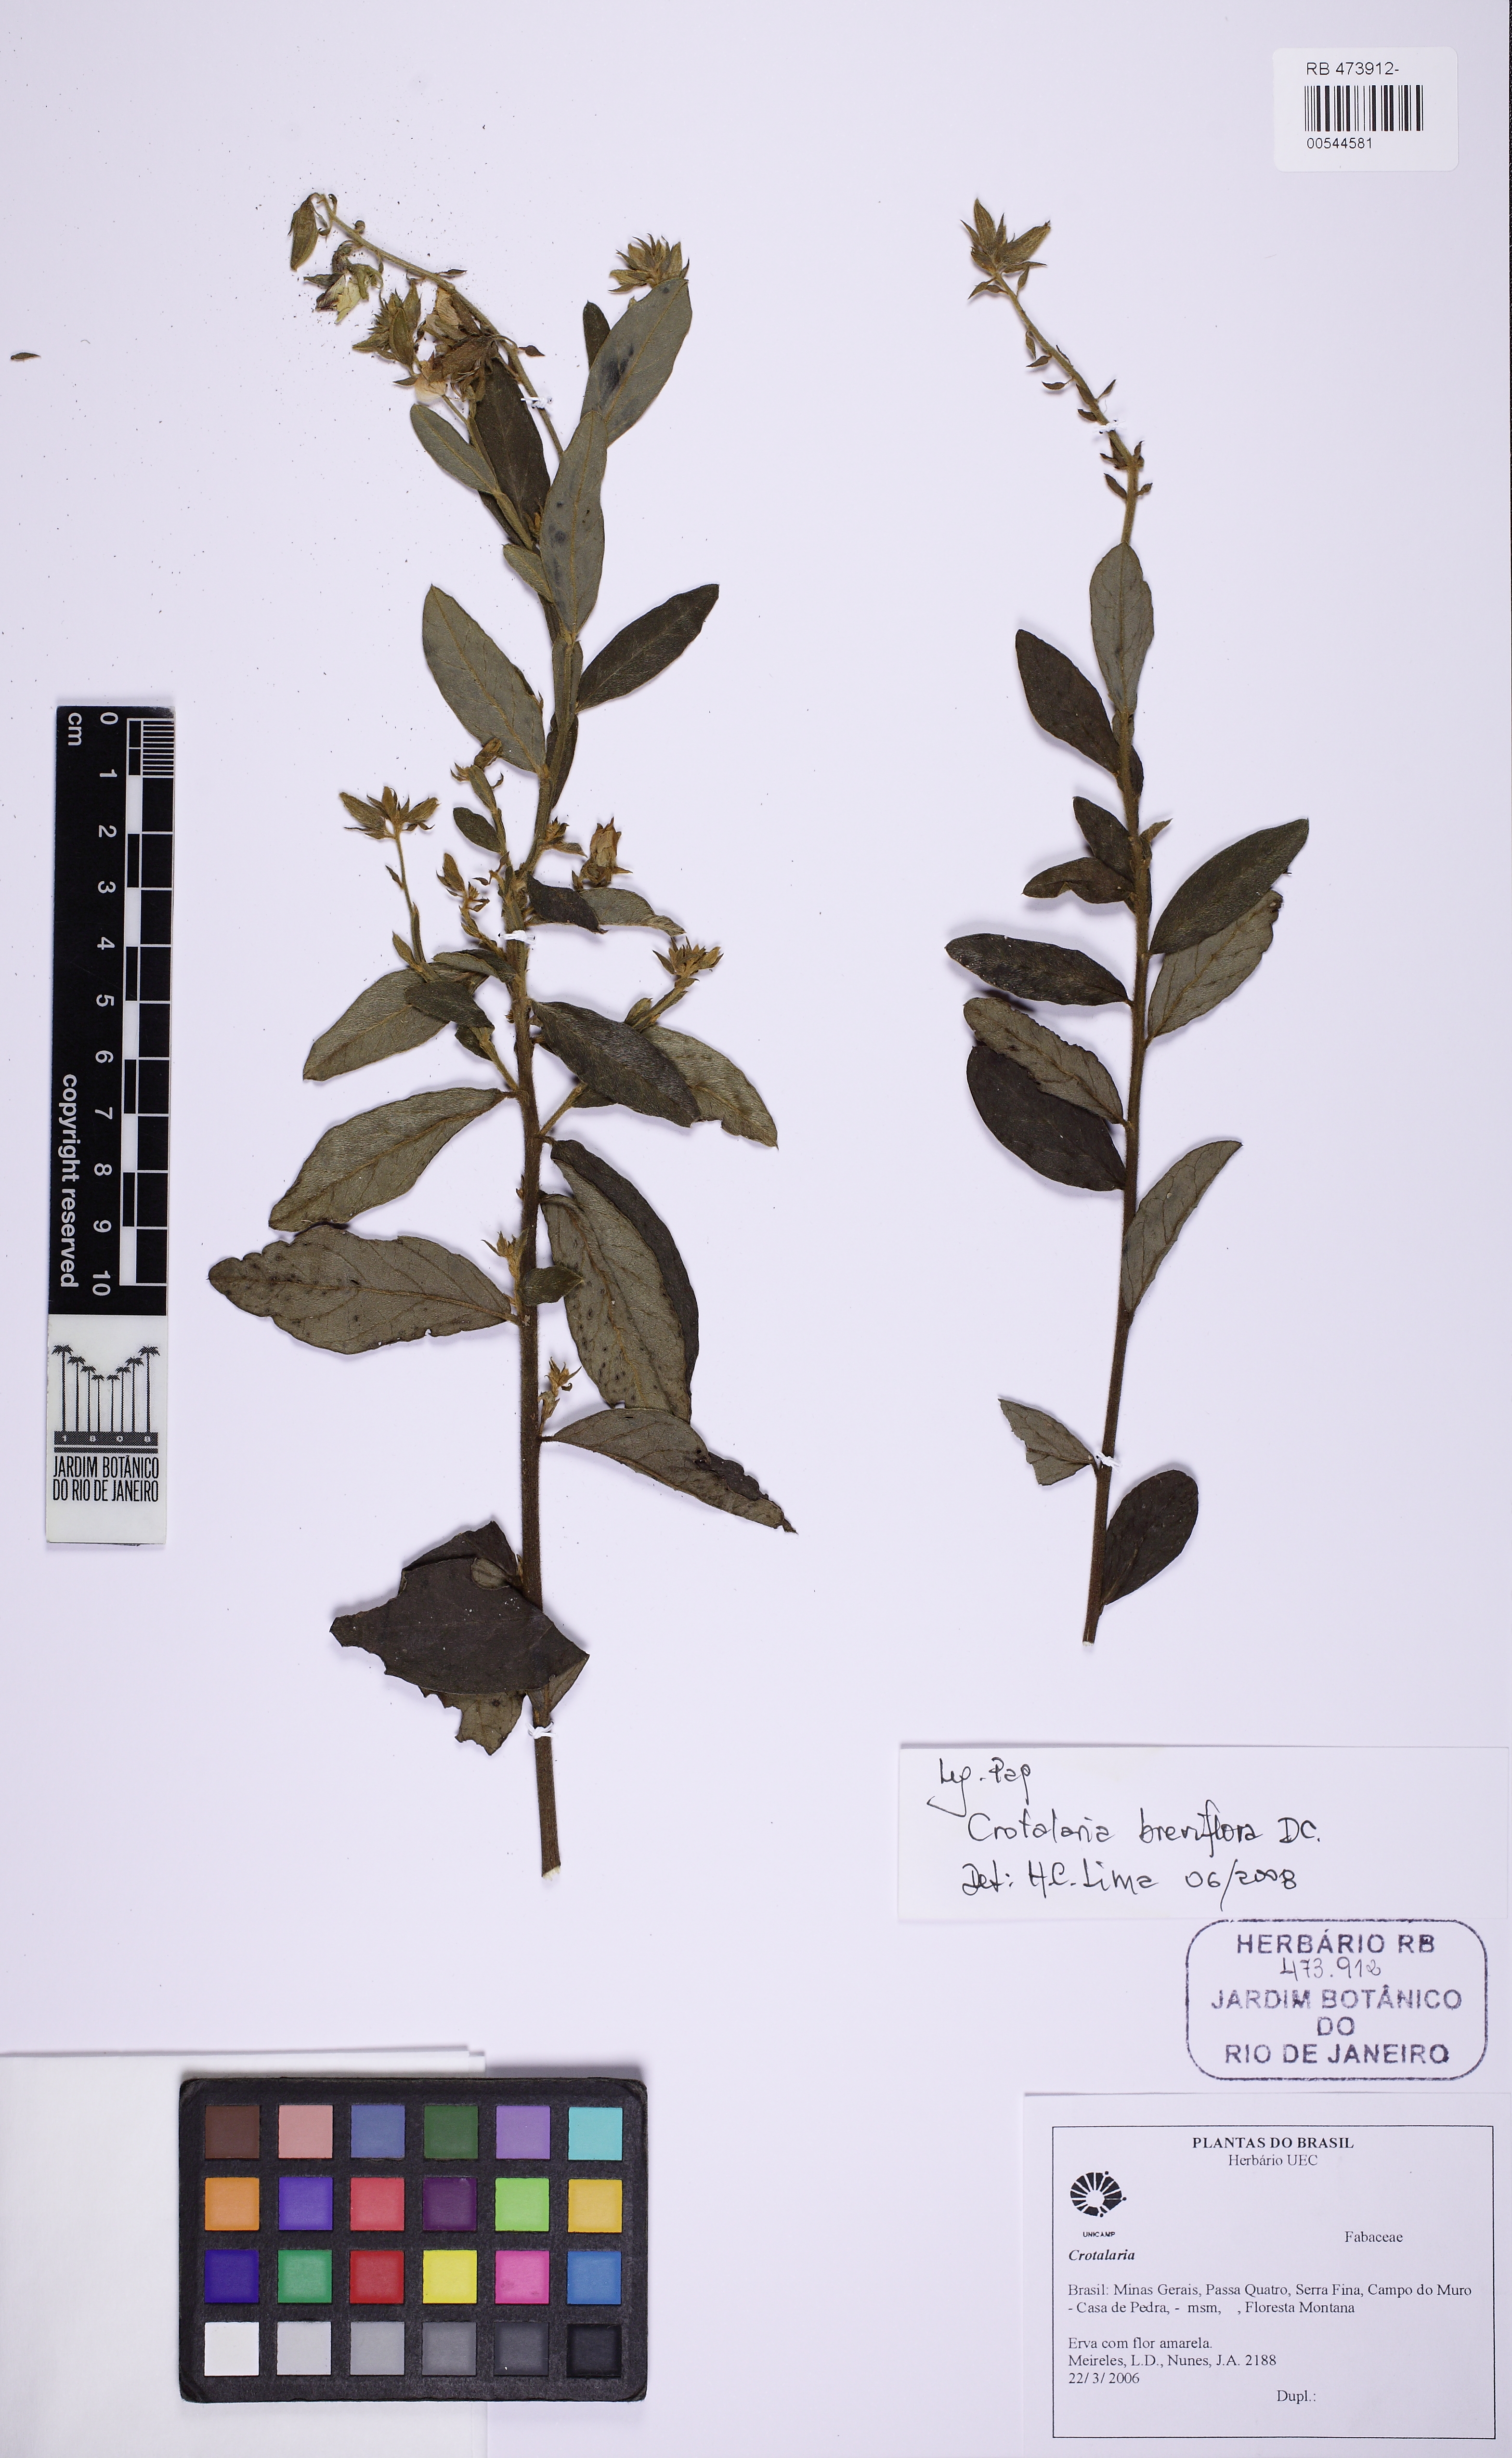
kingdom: Plantae
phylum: Tracheophyta
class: Magnoliopsida
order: Fabales
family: Fabaceae
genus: Crotalaria
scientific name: Crotalaria breviflora
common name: Short-flower crotalaria
